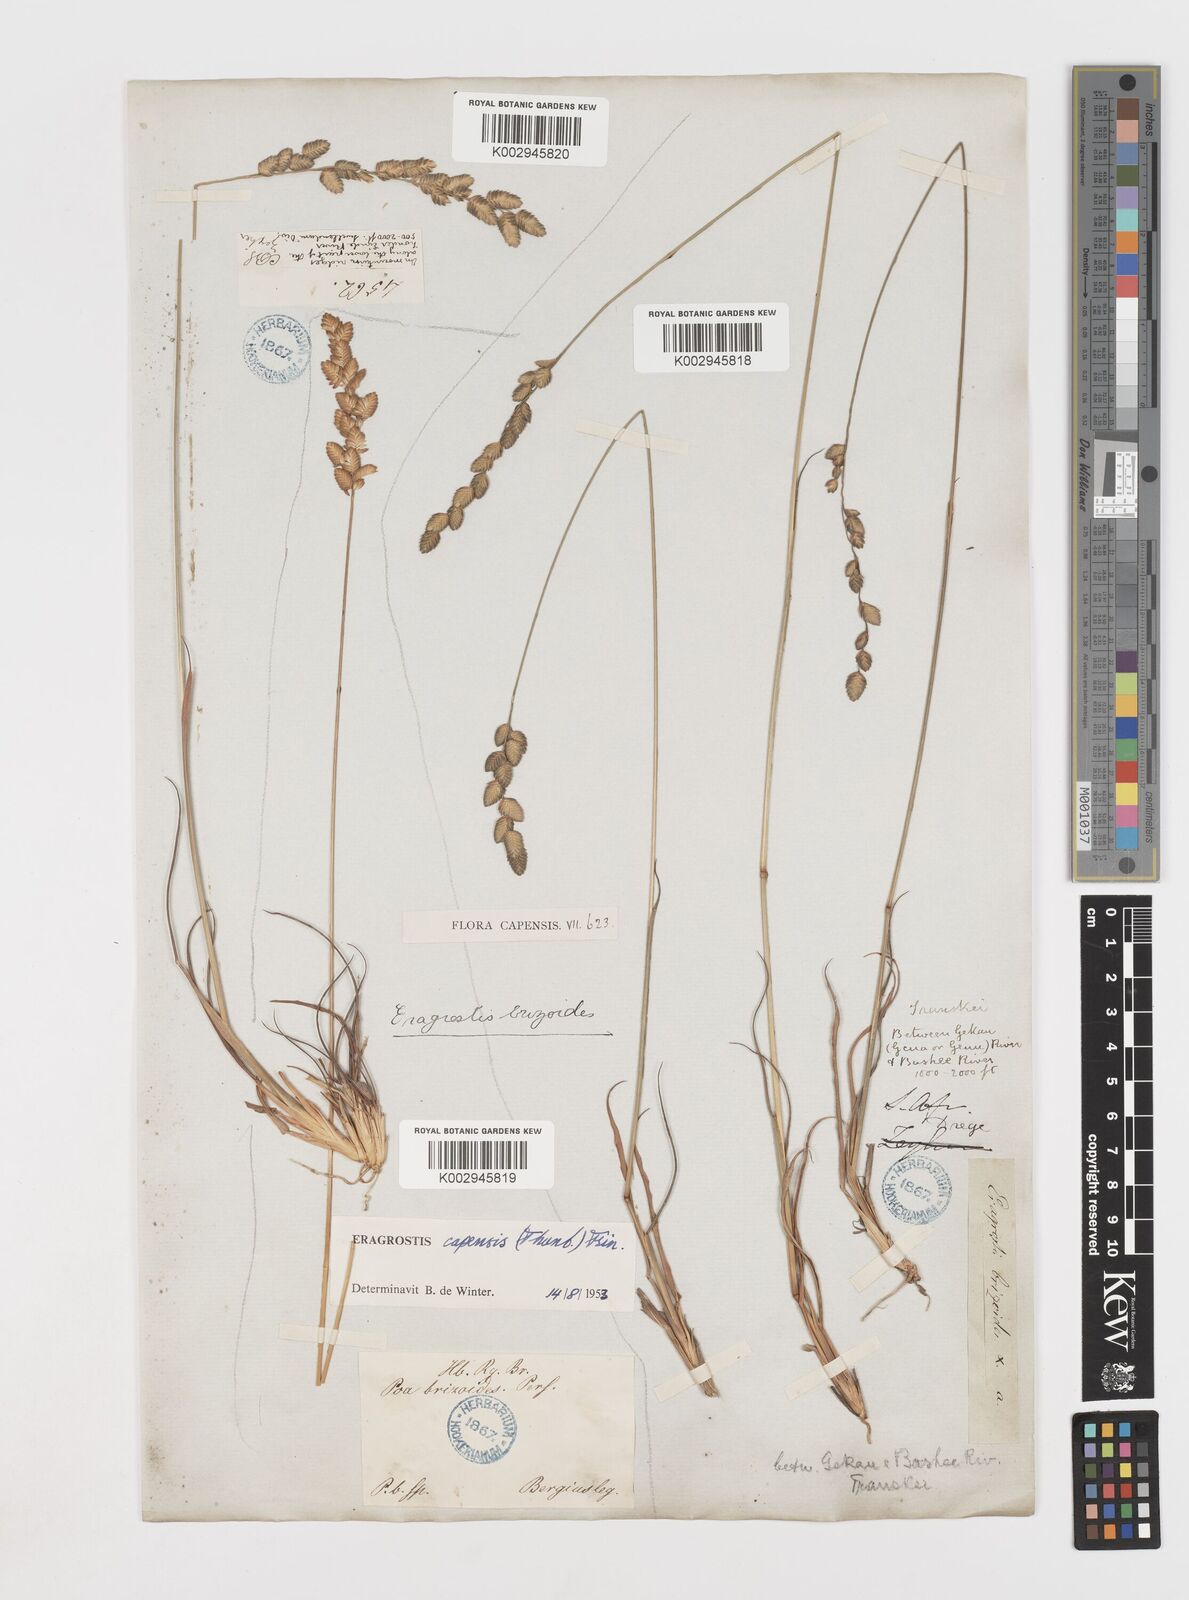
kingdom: Plantae
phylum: Tracheophyta
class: Liliopsida
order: Poales
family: Poaceae
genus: Eragrostis
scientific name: Eragrostis capensis
